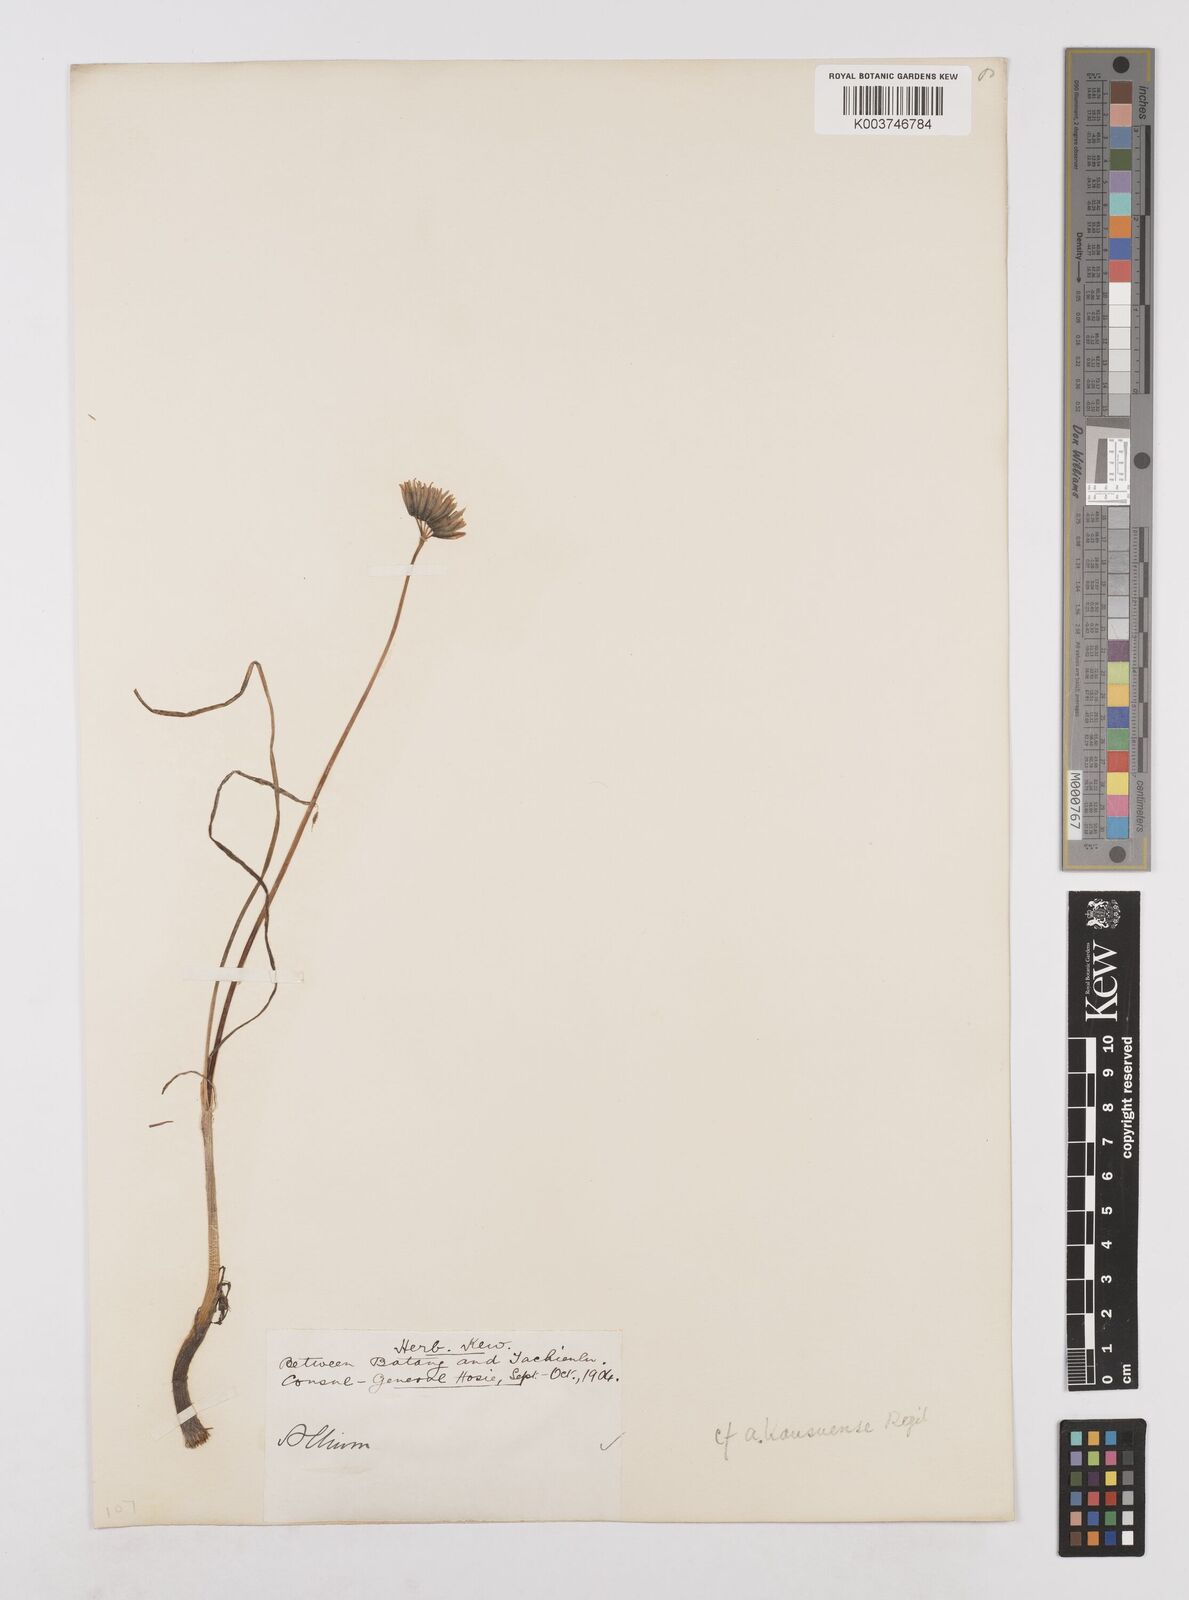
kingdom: Plantae
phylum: Tracheophyta
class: Liliopsida
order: Asparagales
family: Amaryllidaceae
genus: Allium
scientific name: Allium sikkimense
